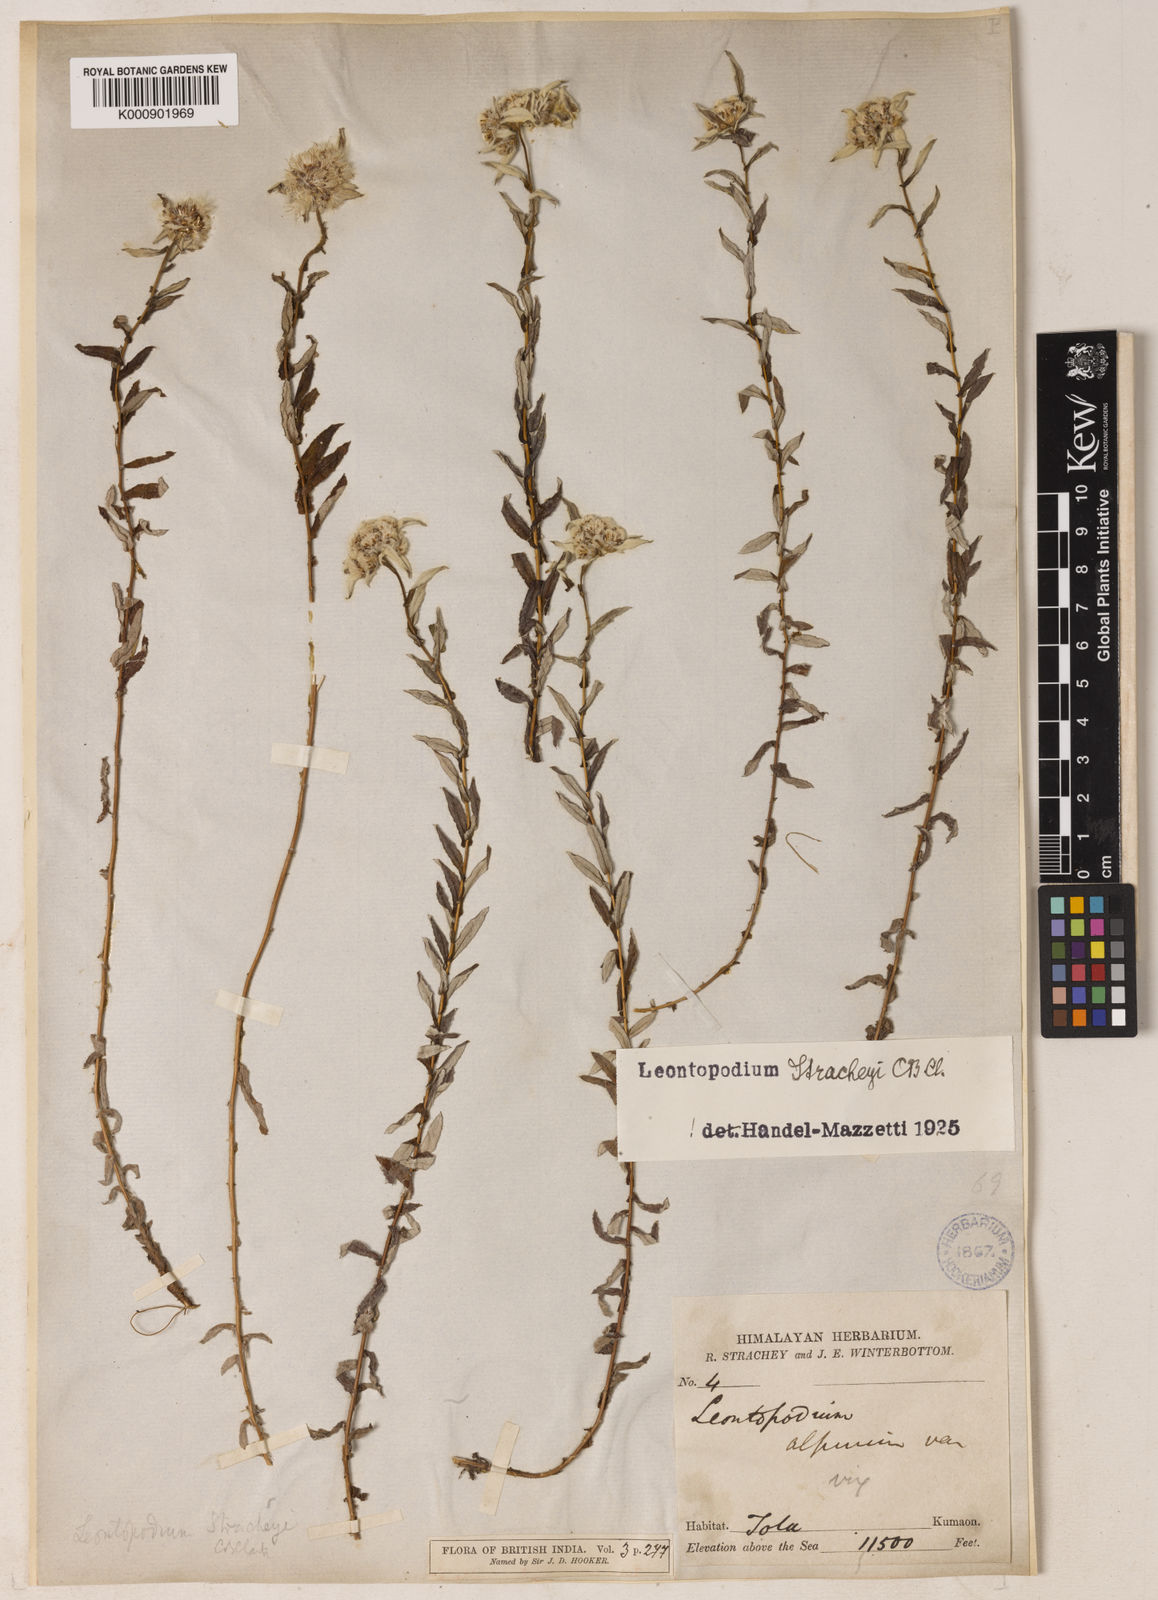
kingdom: Plantae
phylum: Tracheophyta
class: Magnoliopsida
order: Asterales
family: Asteraceae
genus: Leontopodium
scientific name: Leontopodium stracheyi
